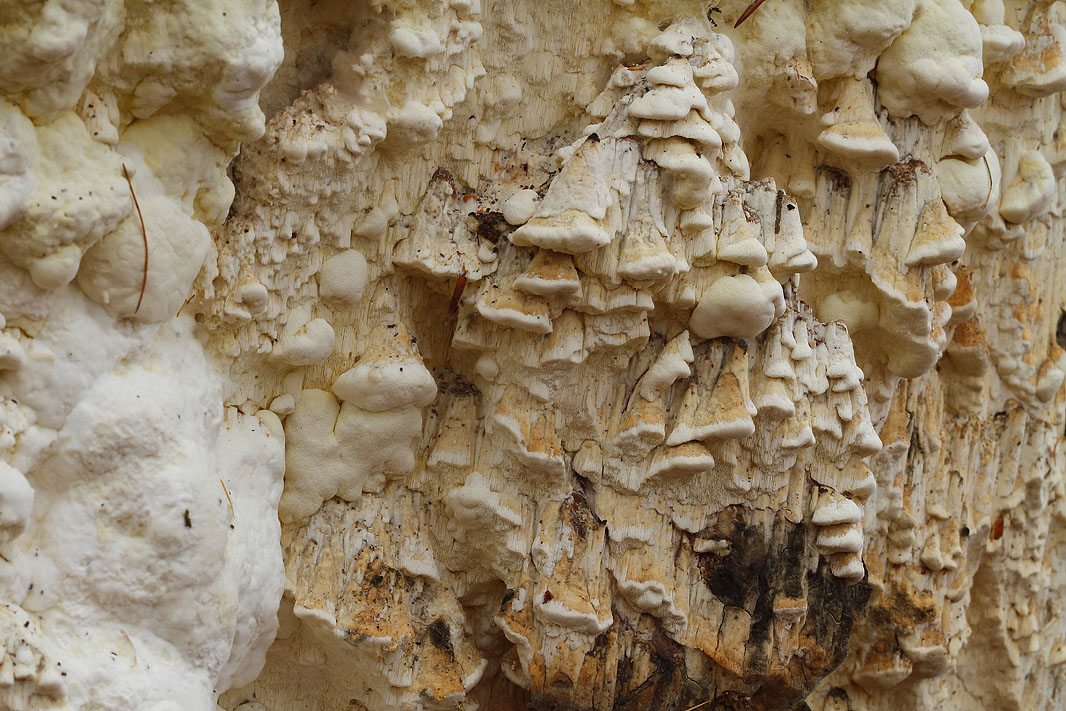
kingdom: Fungi
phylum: Basidiomycota
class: Agaricomycetes
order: Polyporales
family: Fomitopsidaceae
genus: Daedalea
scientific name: Daedalea xantha
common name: gul sejporesvamp
